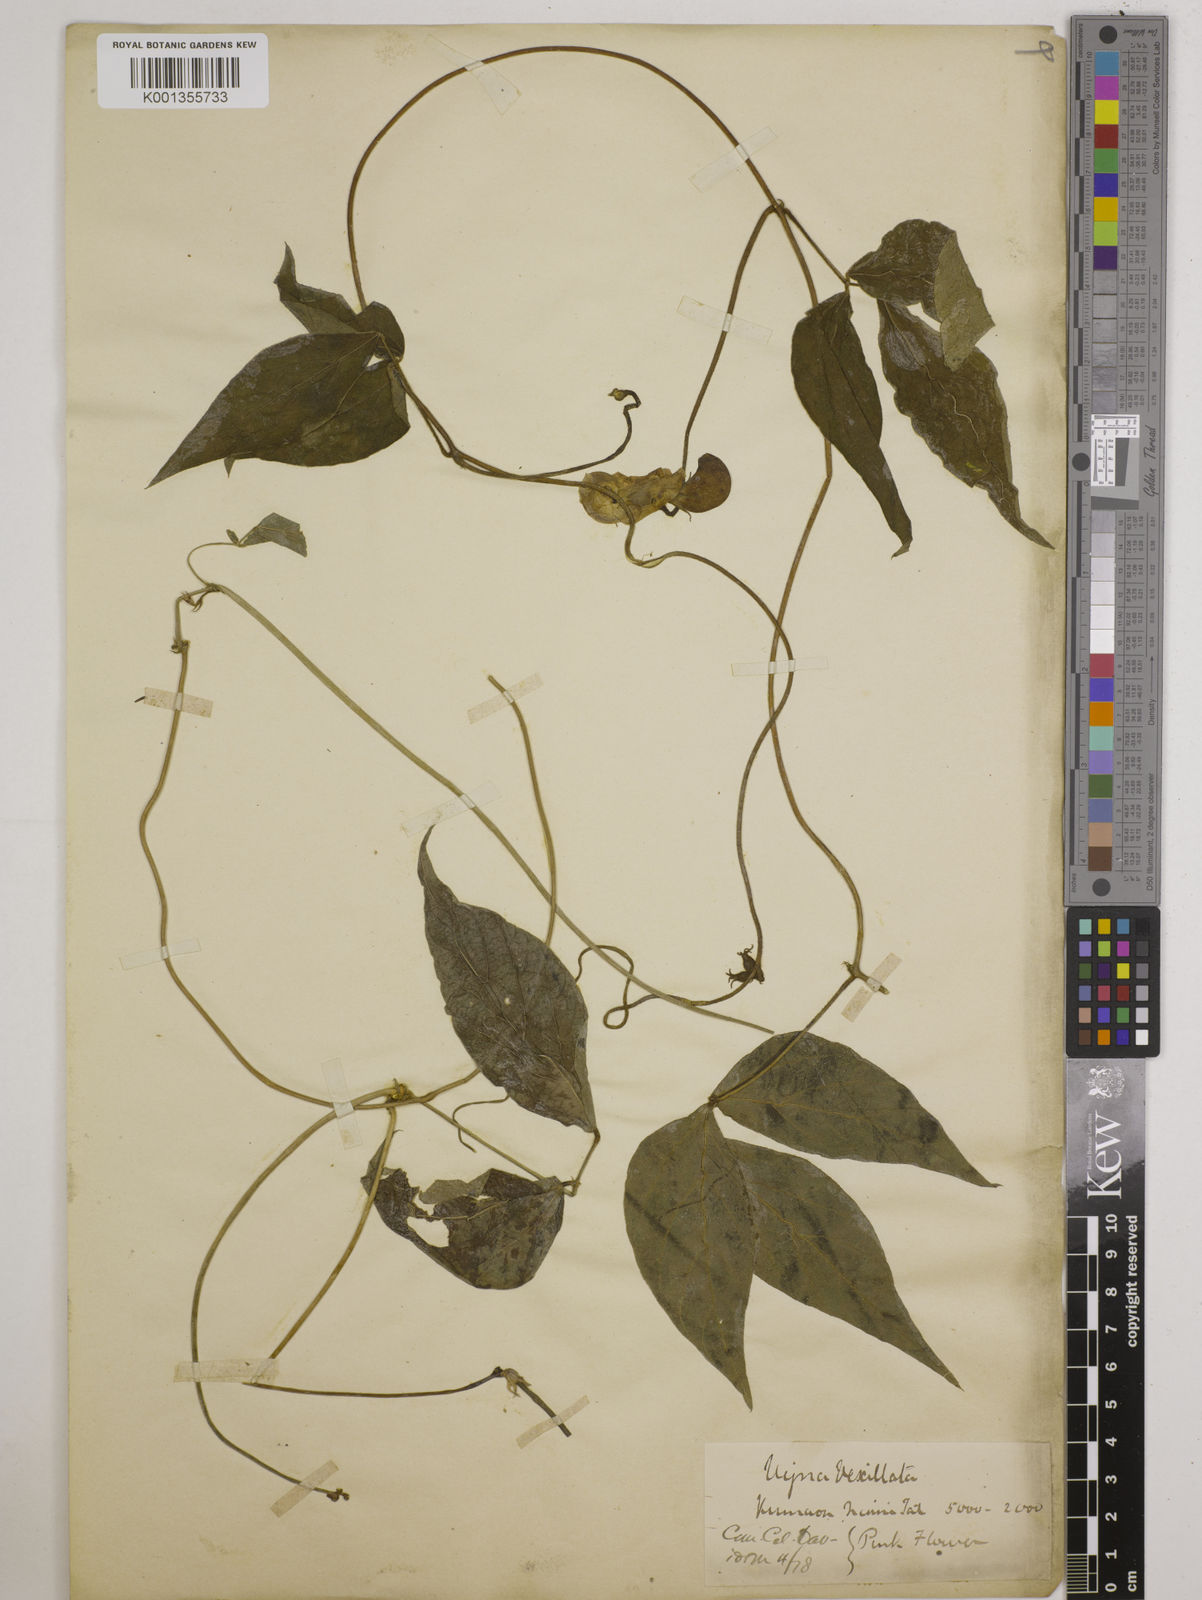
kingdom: Plantae
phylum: Tracheophyta
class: Magnoliopsida
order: Fabales
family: Fabaceae
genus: Vigna
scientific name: Vigna vexillata
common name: Zombi pea
